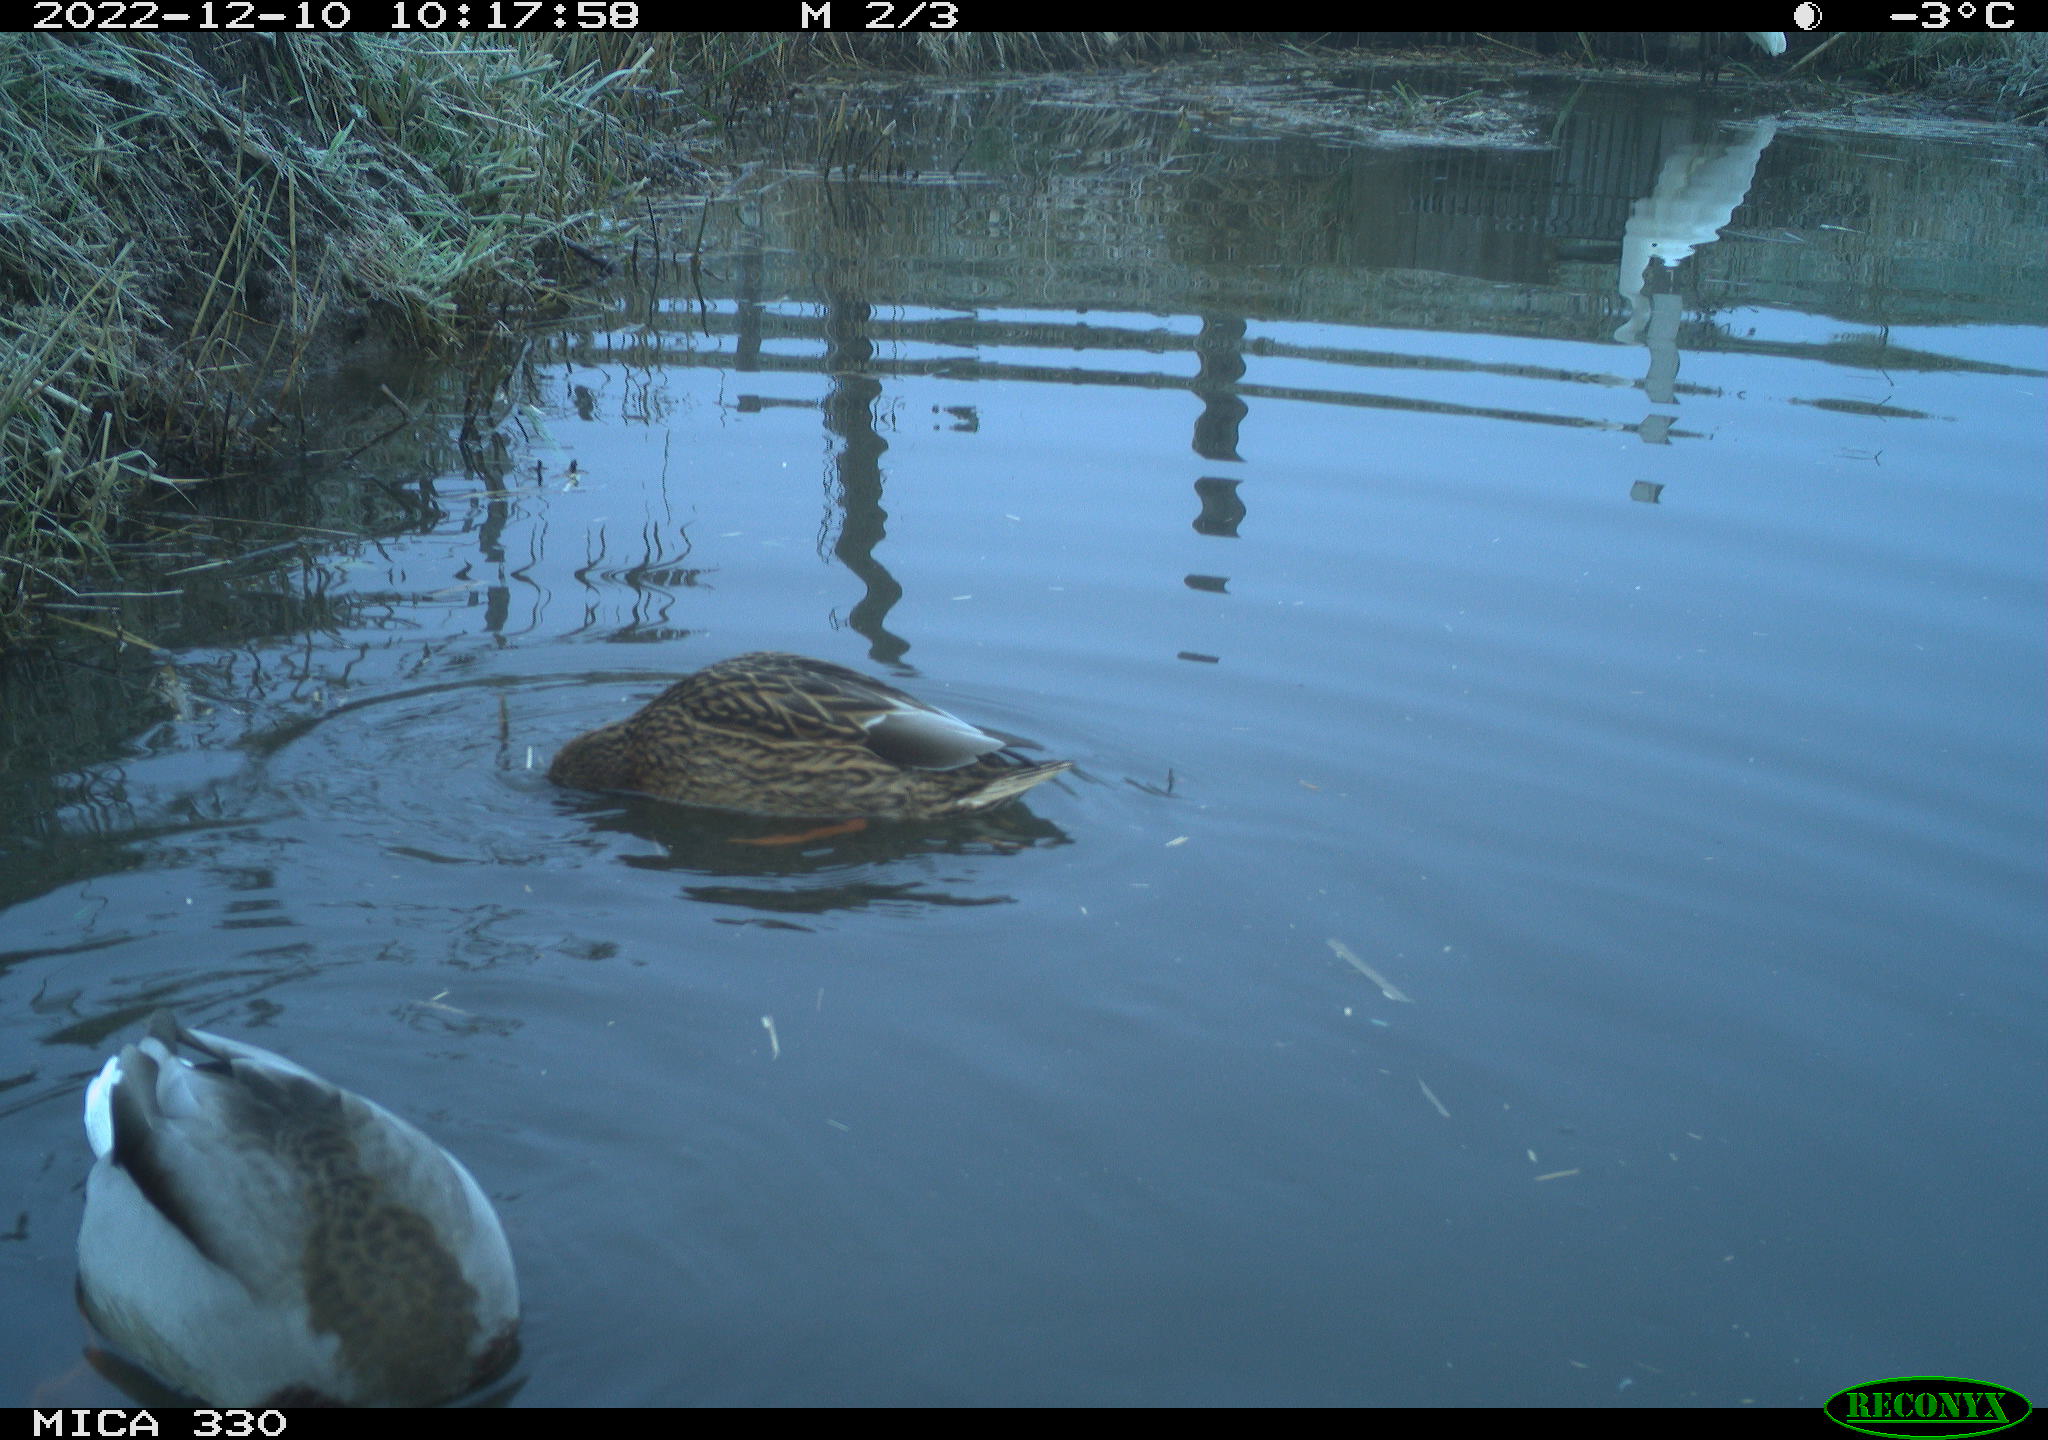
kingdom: Animalia
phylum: Chordata
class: Aves
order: Anseriformes
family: Anatidae
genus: Anas
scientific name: Anas
